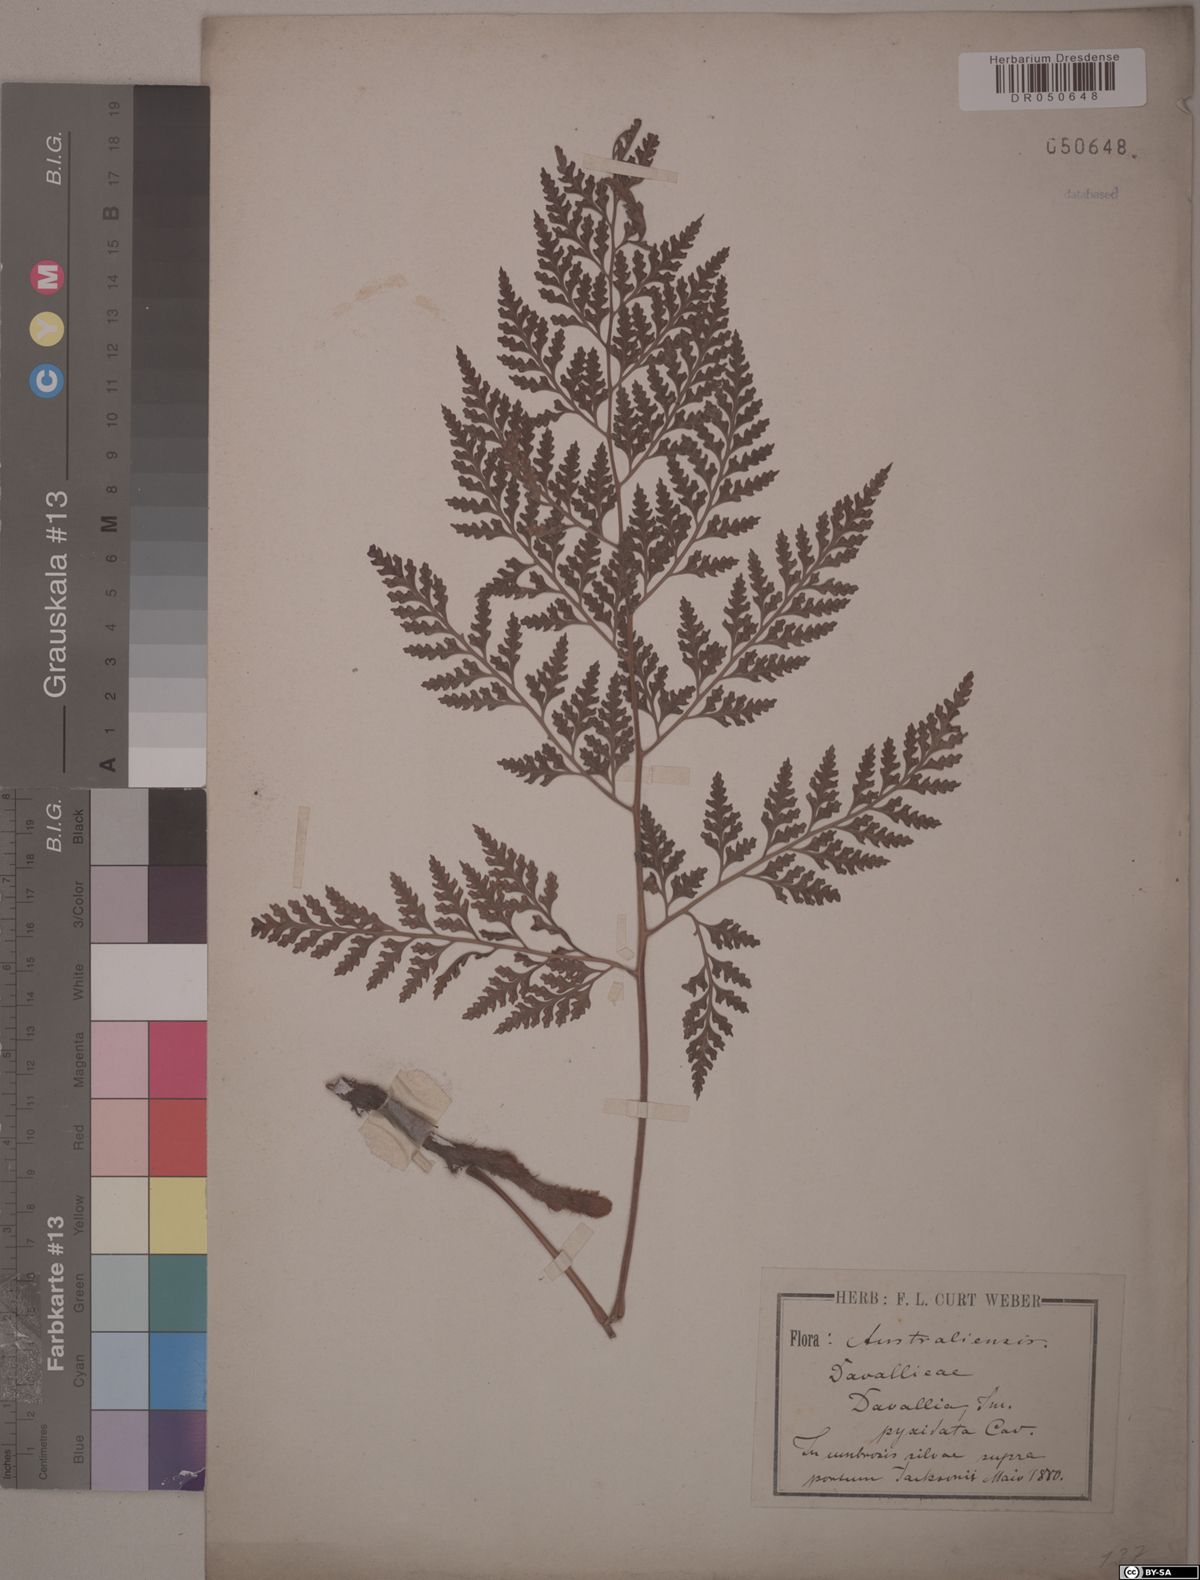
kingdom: Plantae
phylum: Tracheophyta
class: Polypodiopsida
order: Polypodiales
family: Davalliaceae
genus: Davallia
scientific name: Davallia pyxidata
